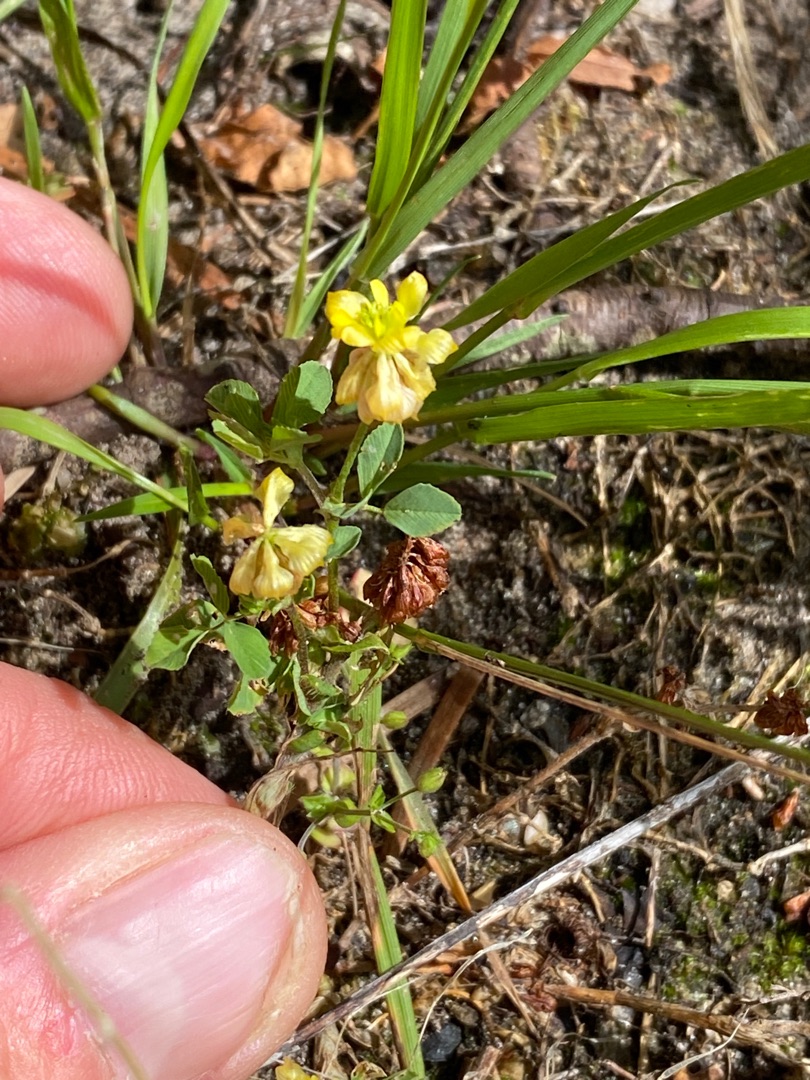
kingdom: Plantae
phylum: Tracheophyta
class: Magnoliopsida
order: Fabales
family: Fabaceae
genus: Trifolium
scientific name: Trifolium campestre
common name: Gul kløver
